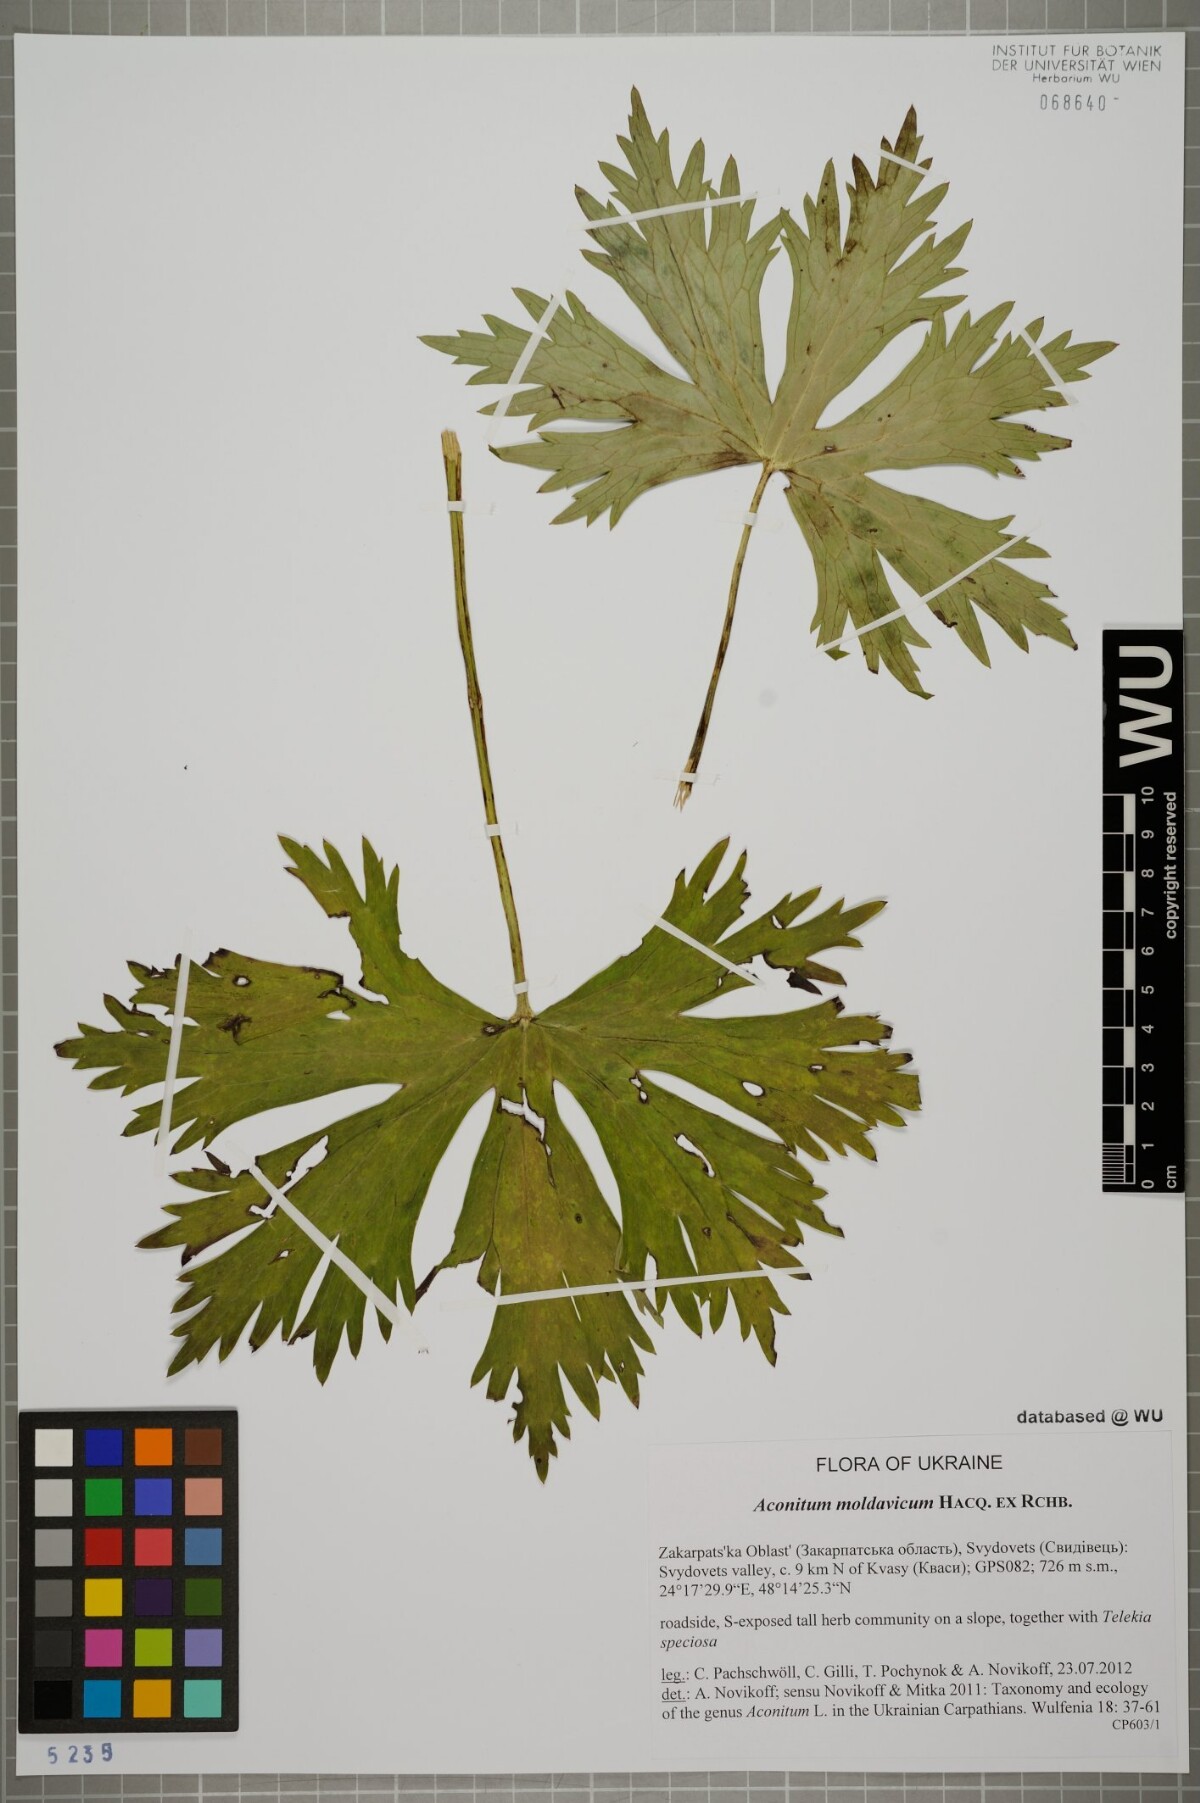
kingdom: Plantae
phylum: Tracheophyta
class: Magnoliopsida
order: Ranunculales
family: Ranunculaceae
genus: Aconitum
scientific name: Aconitum lycoctonum
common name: Wolf's-bane
